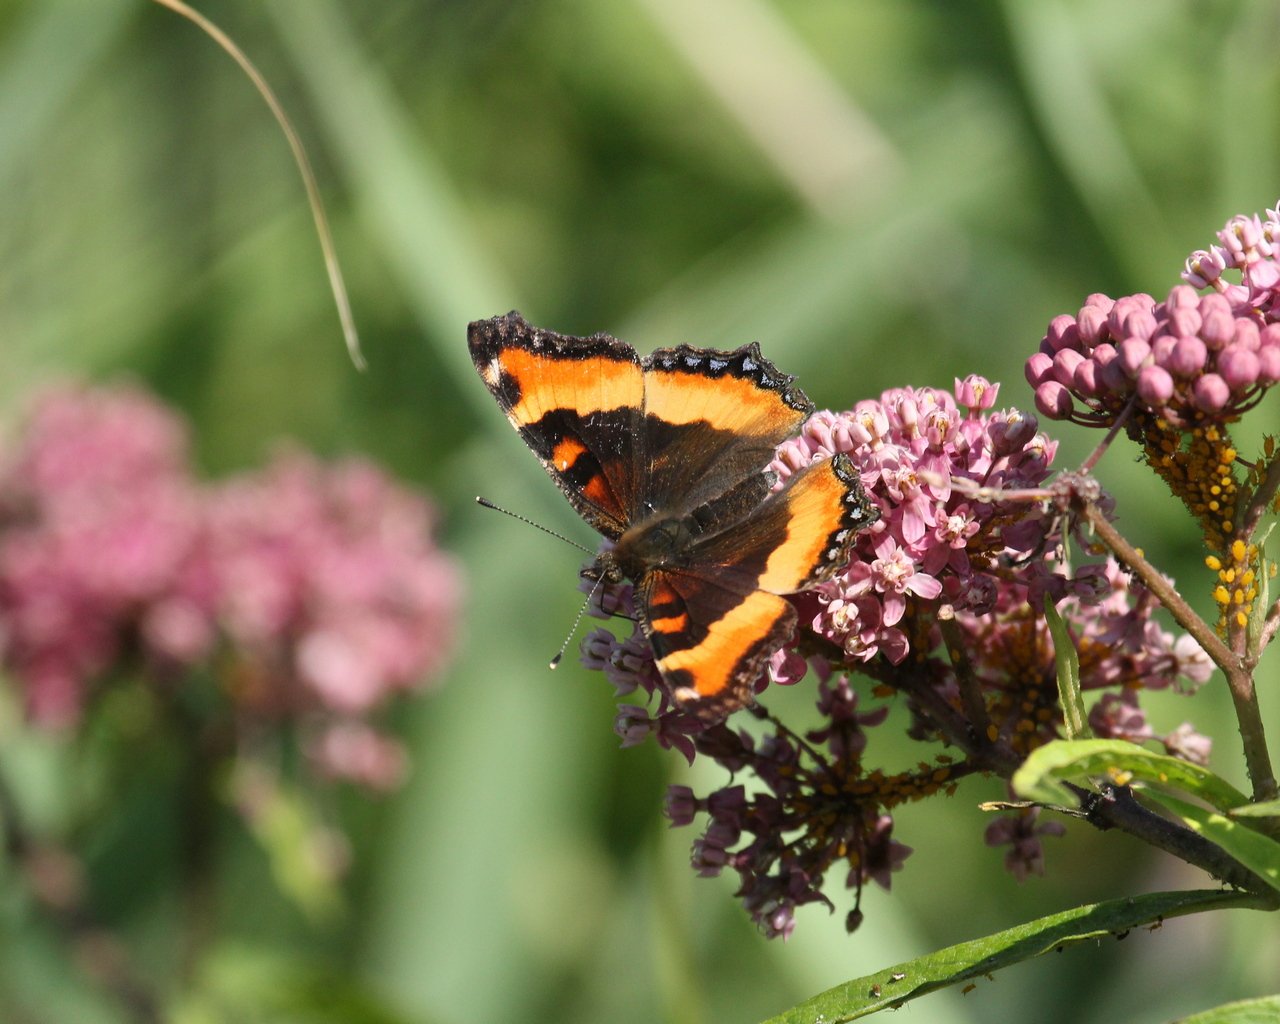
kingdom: Animalia
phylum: Arthropoda
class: Insecta
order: Lepidoptera
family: Nymphalidae
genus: Aglais
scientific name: Aglais milberti
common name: Milbert's Tortoiseshell
